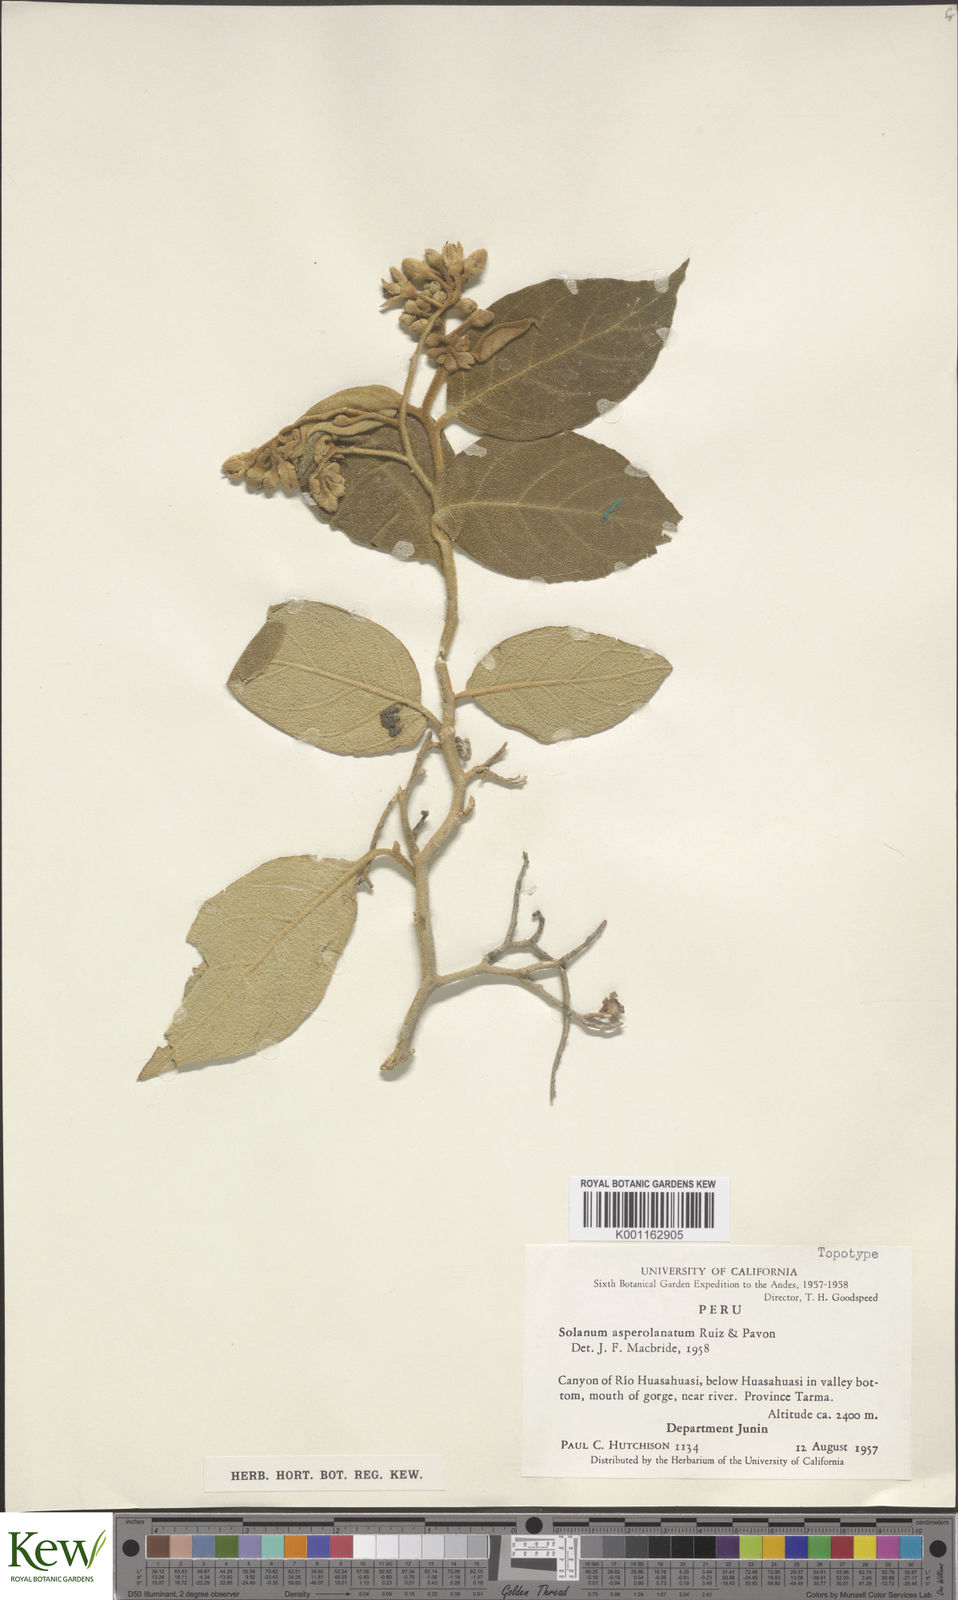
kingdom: Plantae
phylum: Tracheophyta
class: Magnoliopsida
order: Solanales
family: Solanaceae
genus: Solanum
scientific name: Solanum asperolanatum
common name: Devil's-fig
